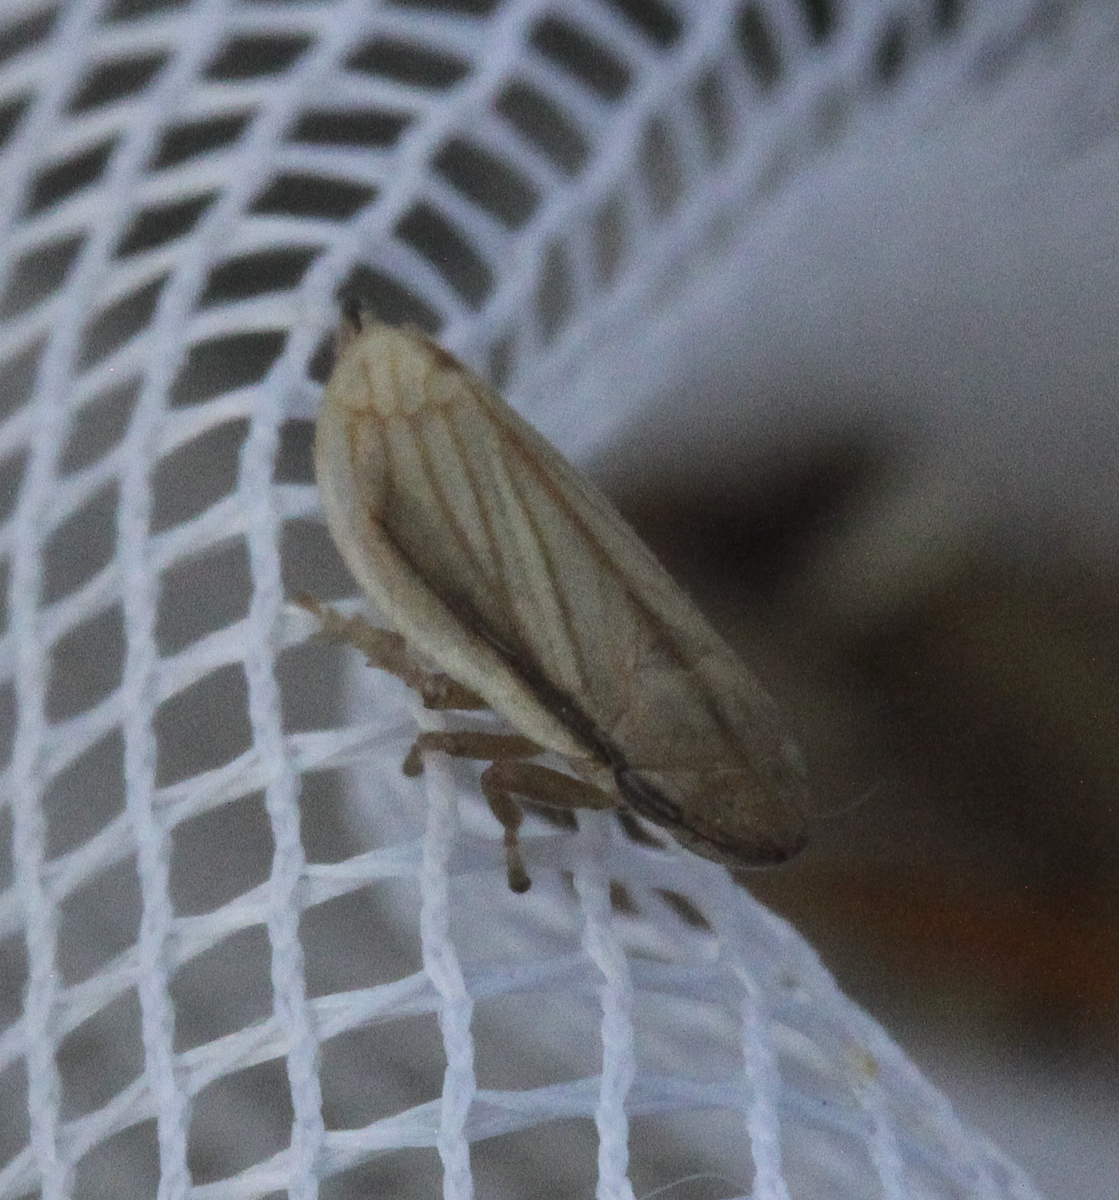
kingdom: Animalia
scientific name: Animalia
